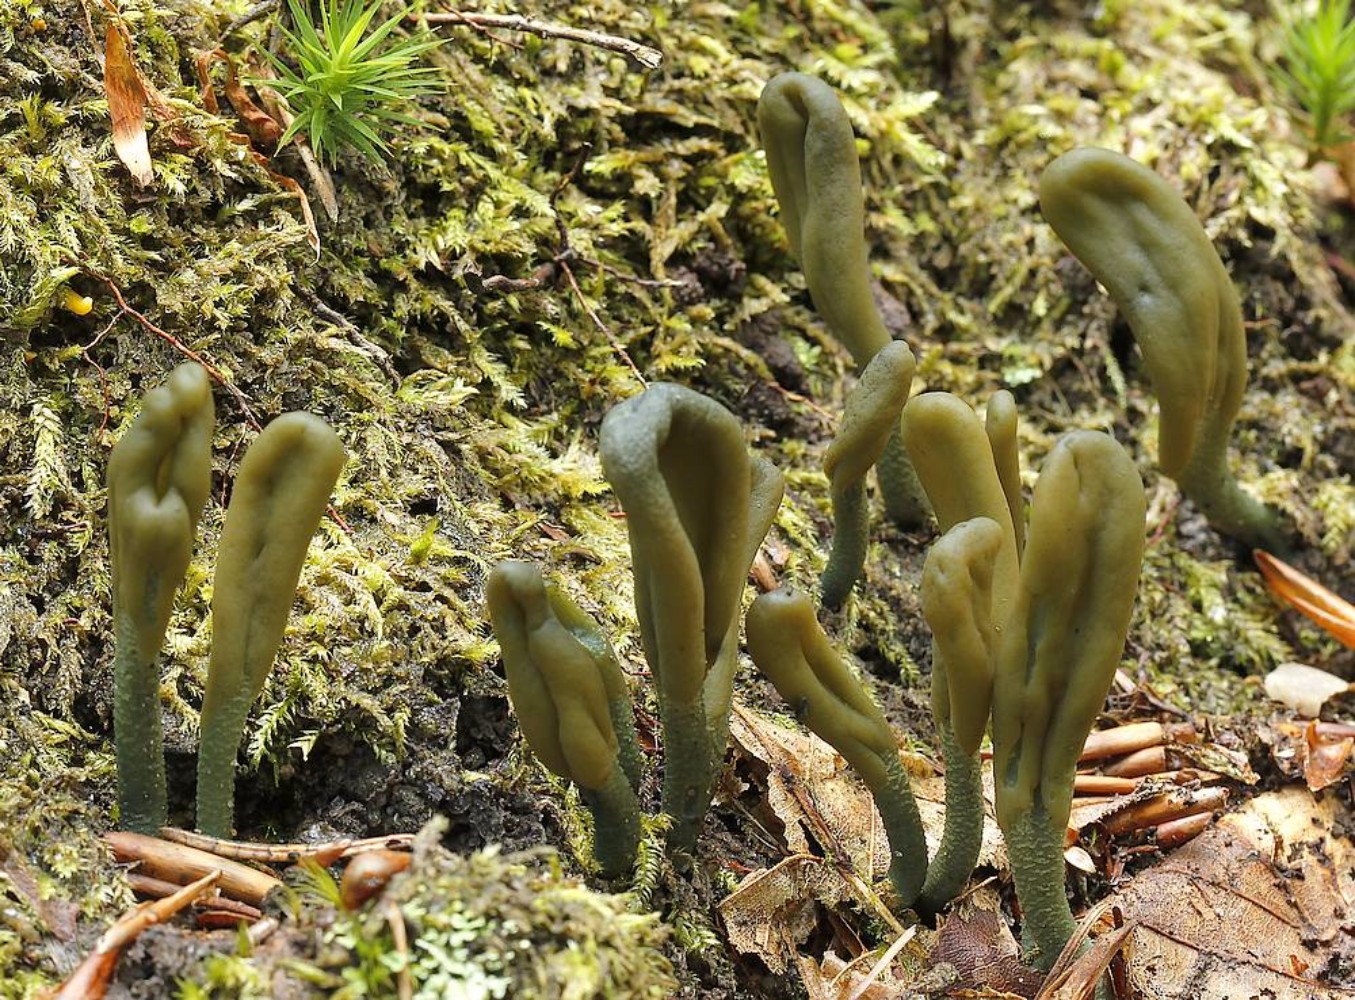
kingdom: Fungi
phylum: Ascomycota
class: Leotiomycetes
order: Leotiales
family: Leotiaceae
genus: Microglossum
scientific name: Microglossum griseoviride
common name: grågrøn farvetunge
